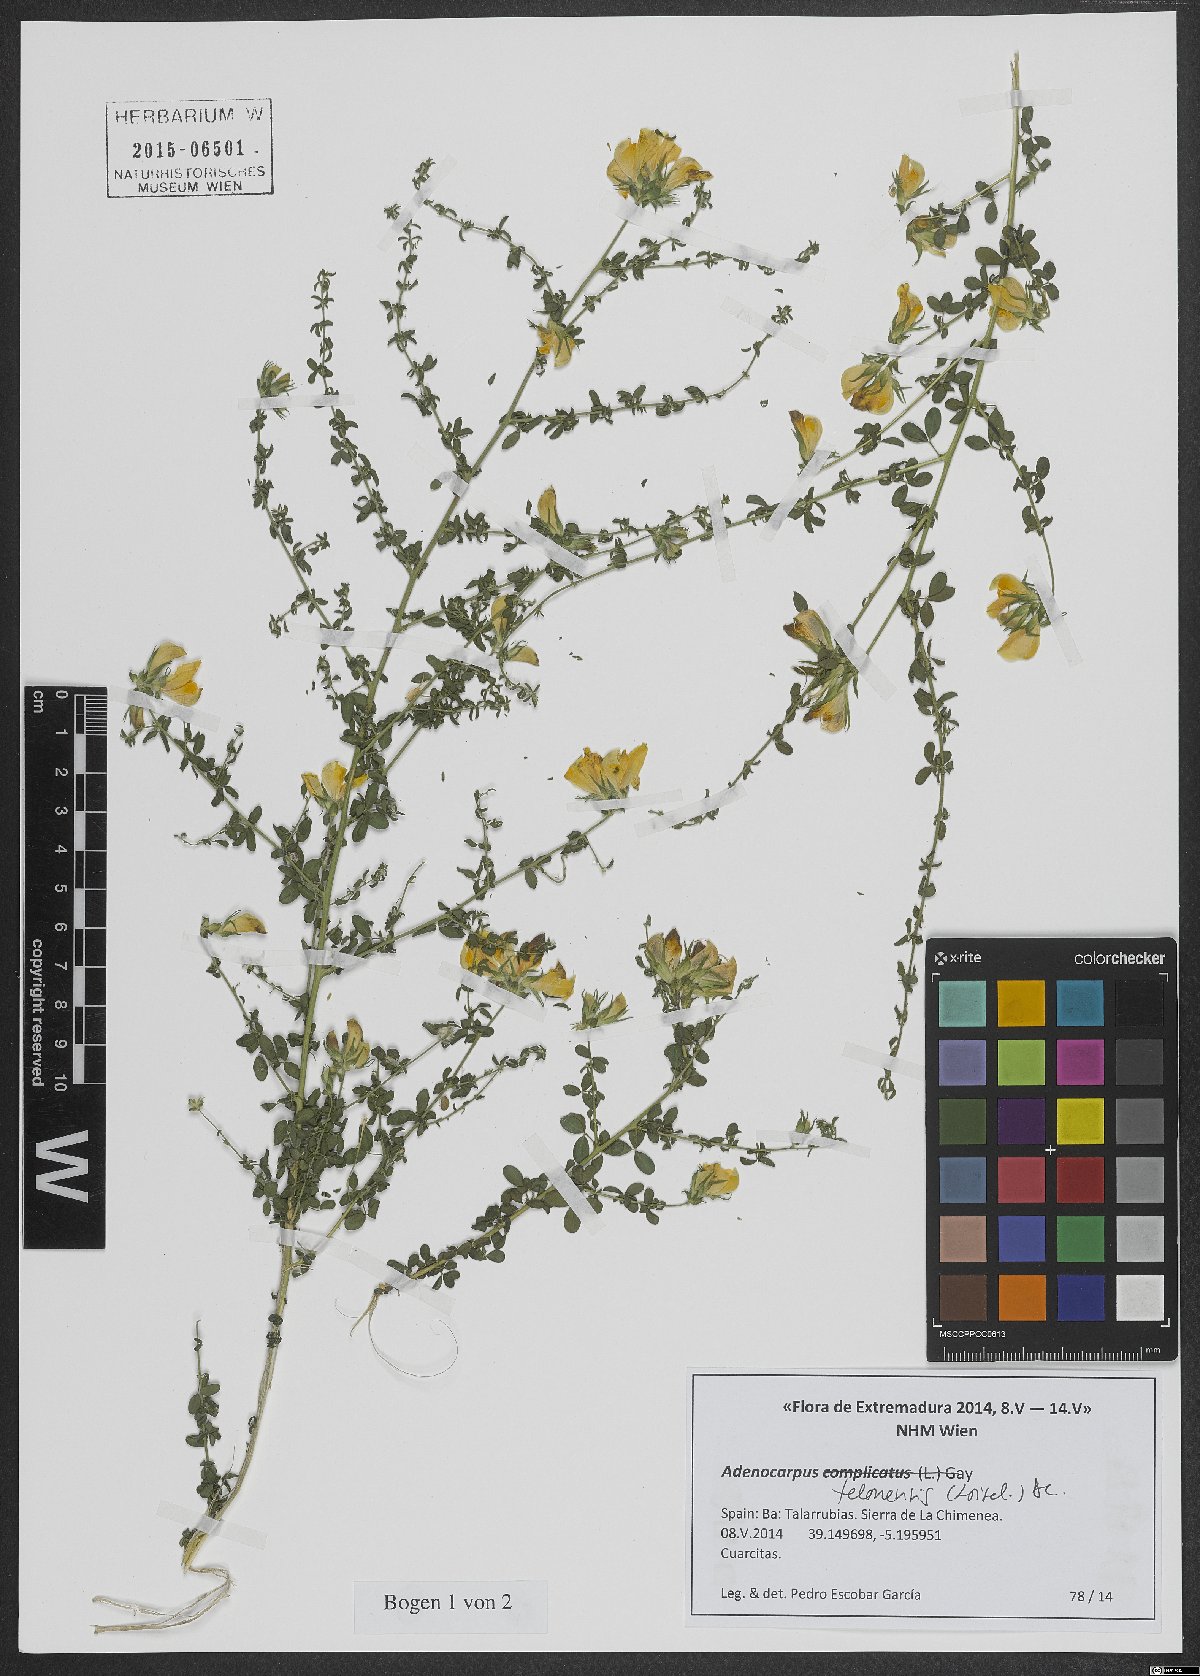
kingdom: Plantae
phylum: Tracheophyta
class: Magnoliopsida
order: Fabales
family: Fabaceae
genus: Adenocarpus
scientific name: Adenocarpus telonensis
